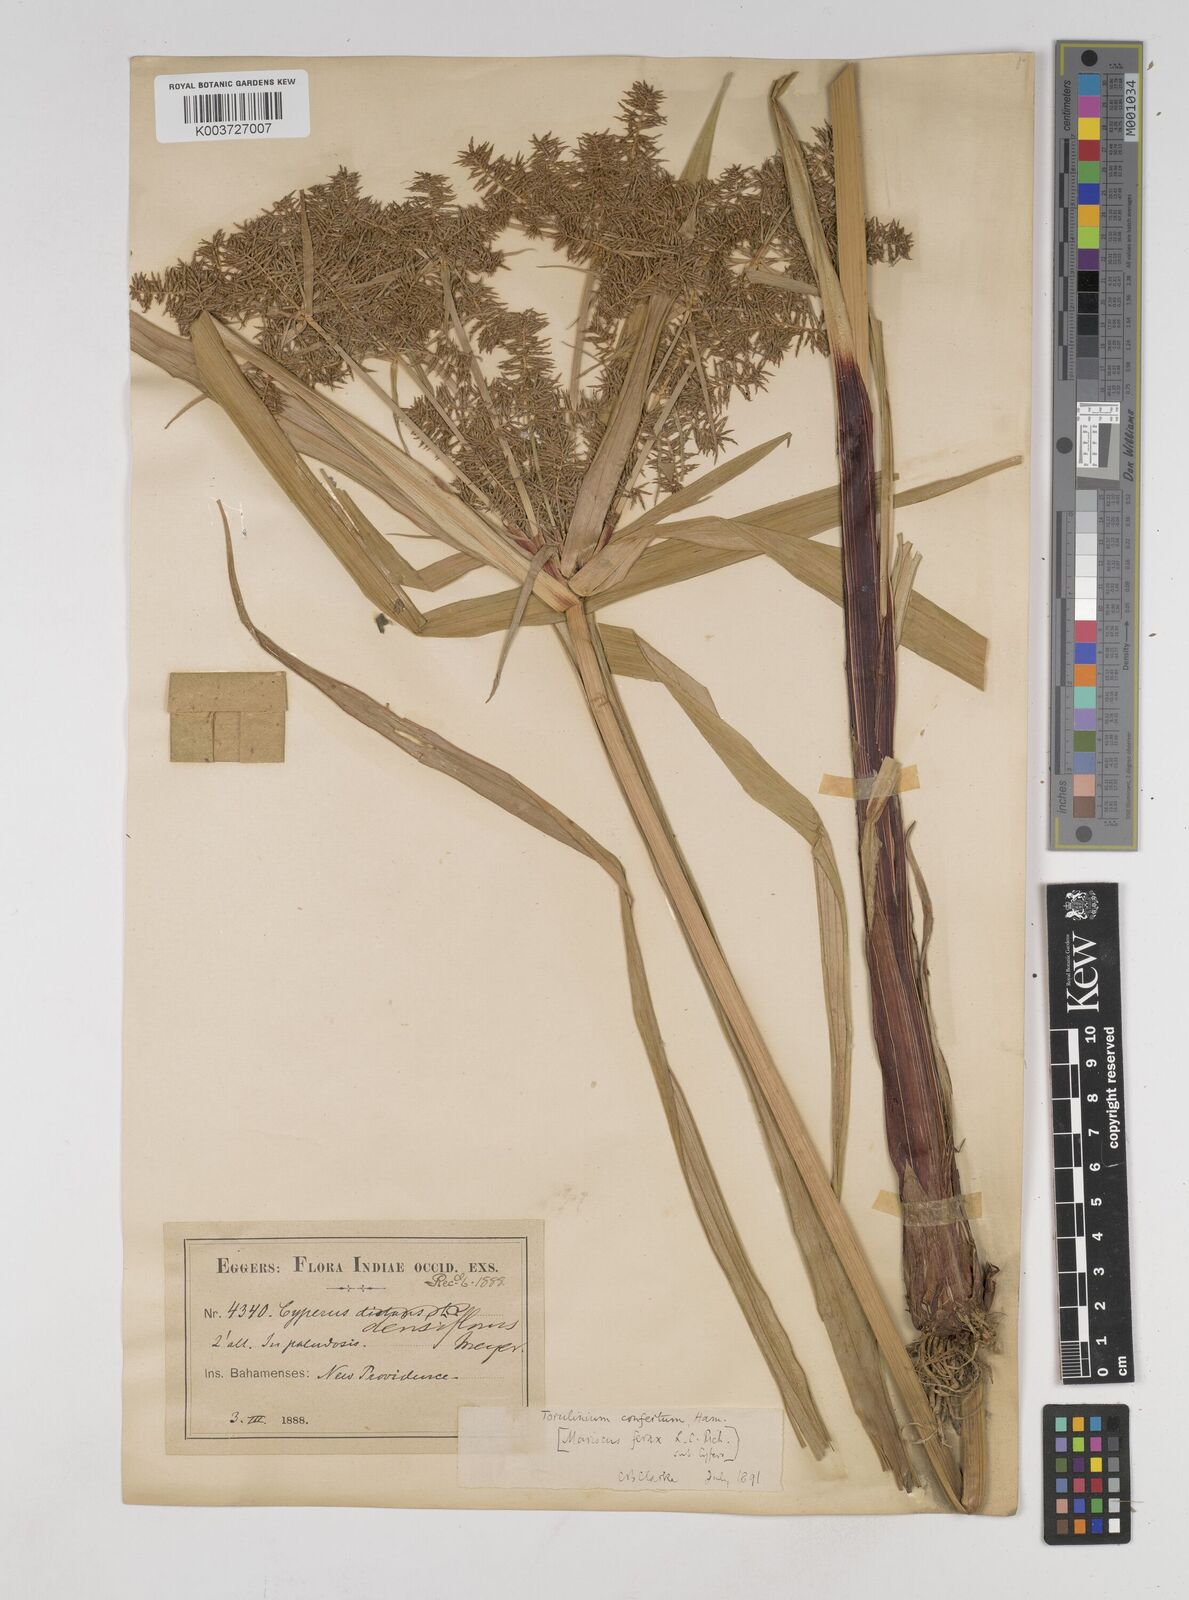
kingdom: Plantae
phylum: Tracheophyta
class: Liliopsida
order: Poales
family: Cyperaceae
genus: Cyperus
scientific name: Cyperus odoratus
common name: Fragrant flatsedge
